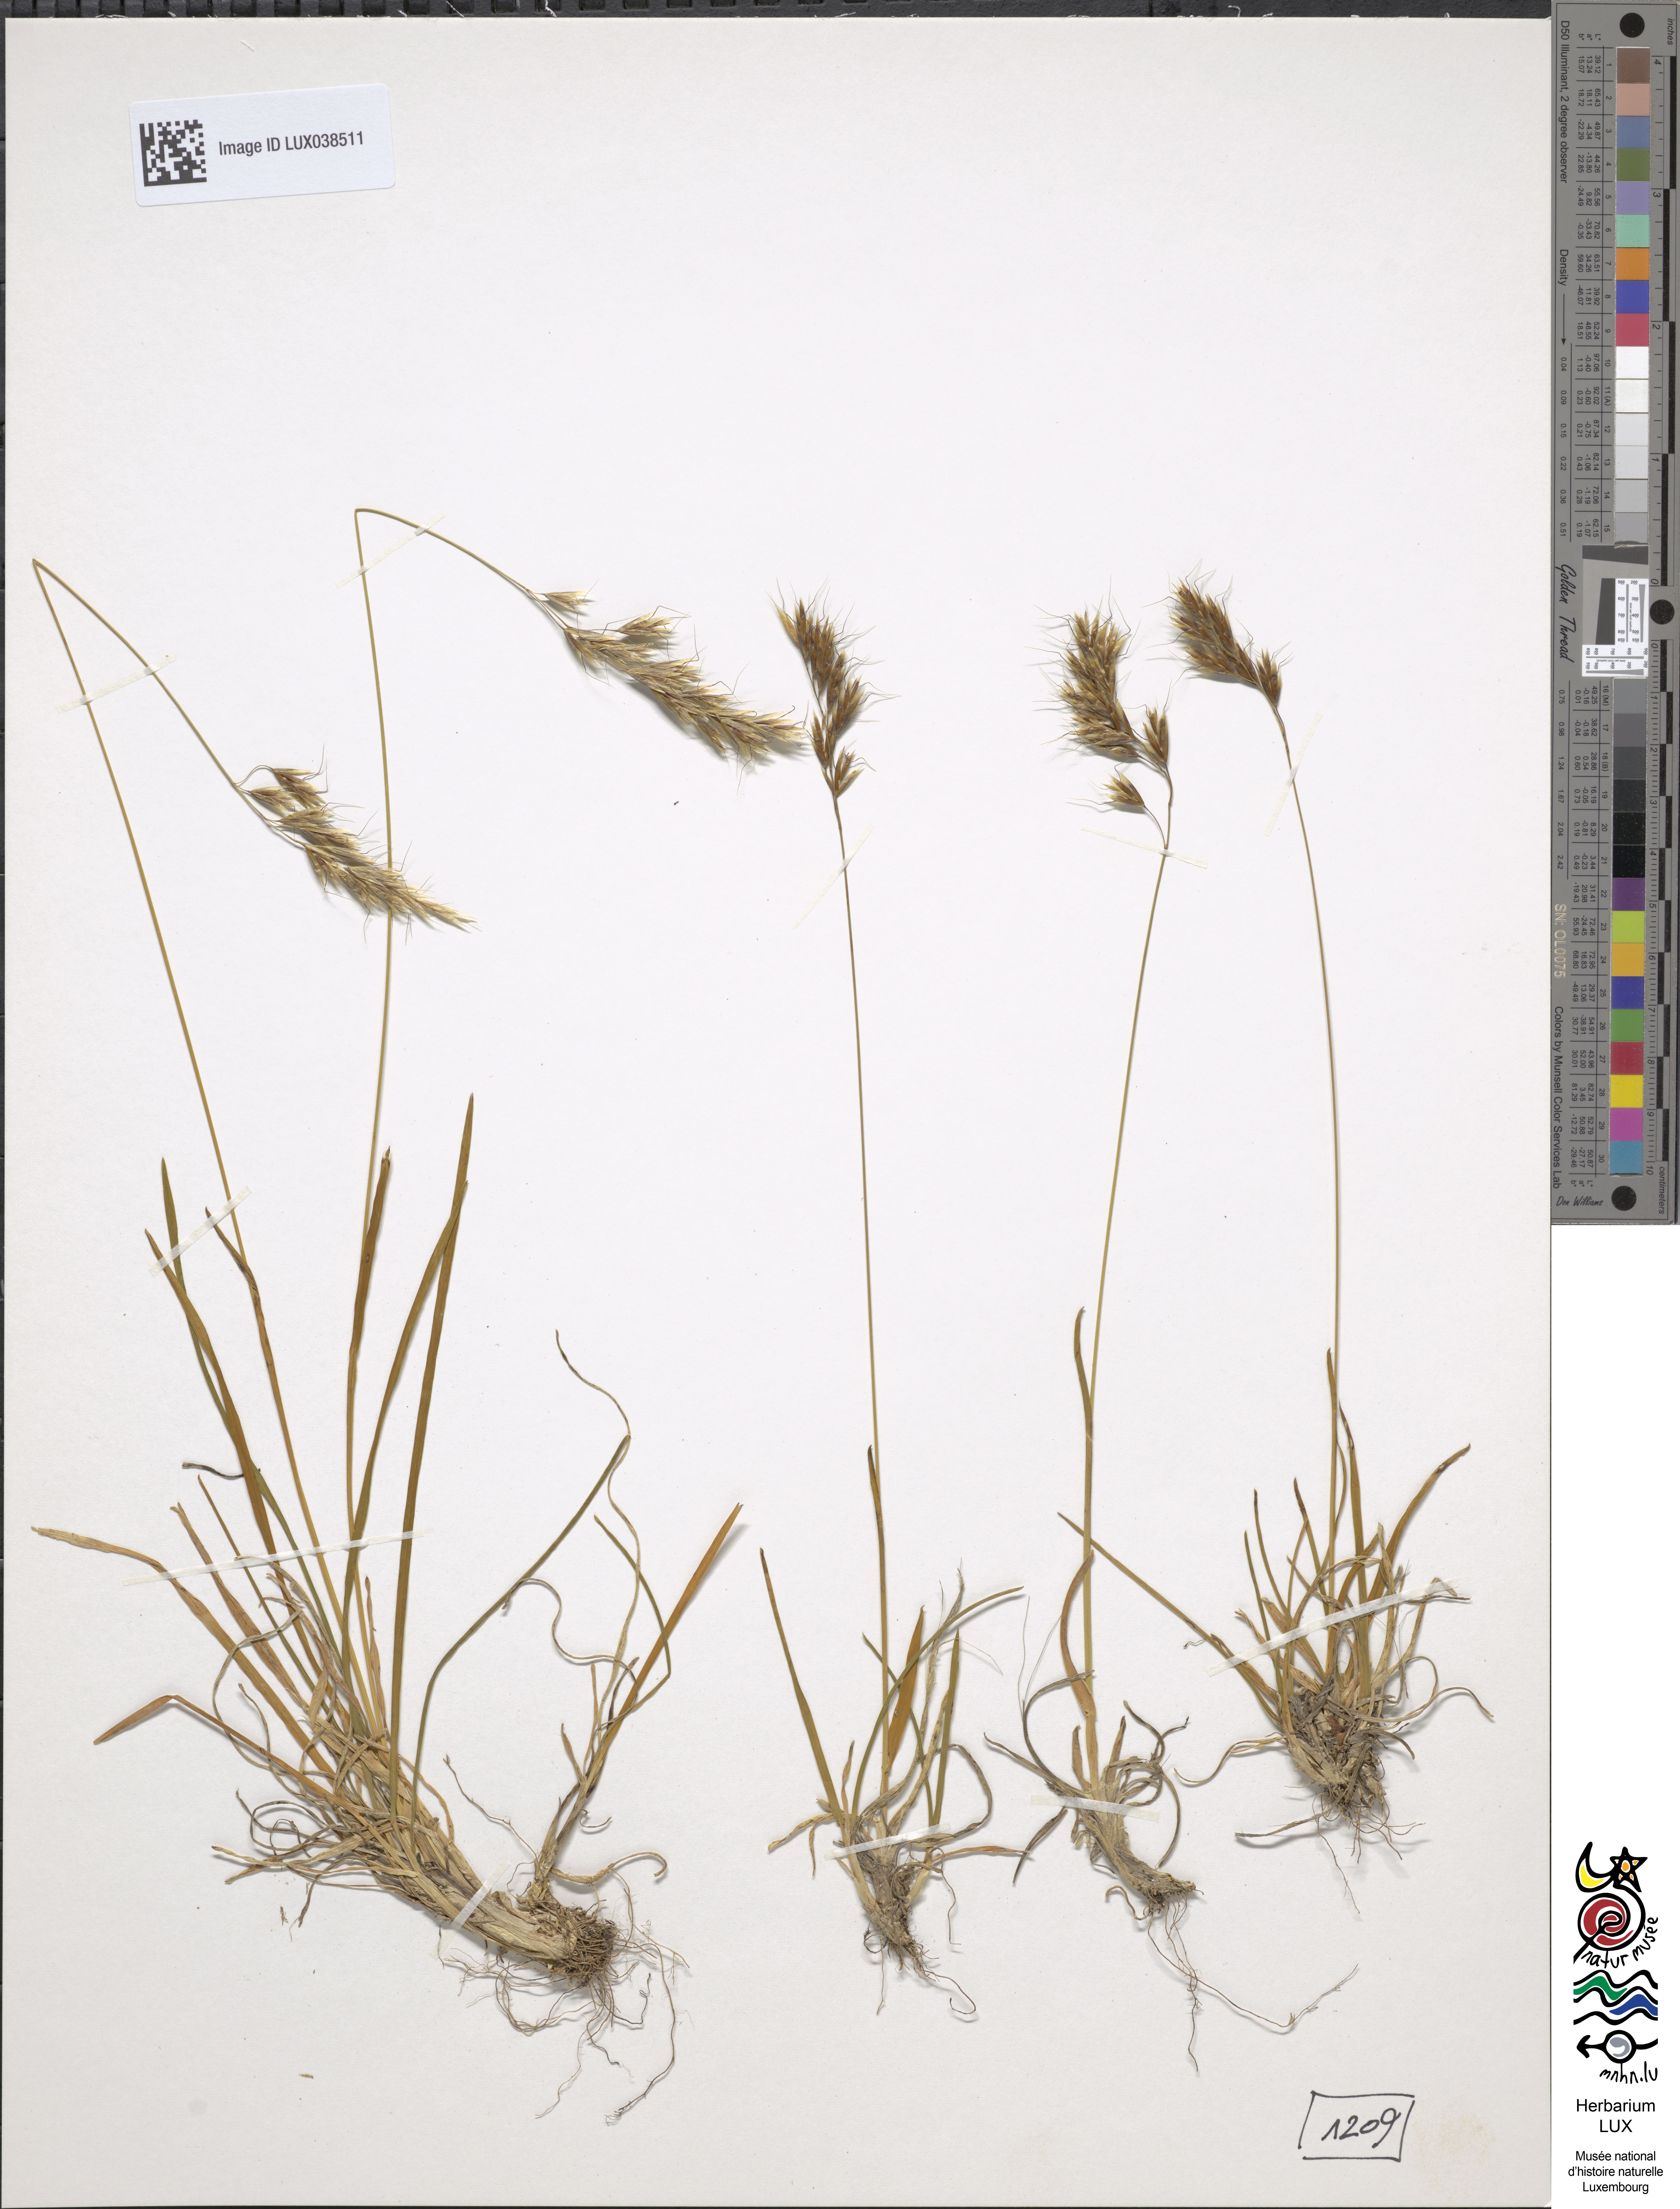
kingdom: Plantae
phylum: Tracheophyta
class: Liliopsida
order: Poales
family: Poaceae
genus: Helictochloa
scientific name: Helictochloa versicolor
